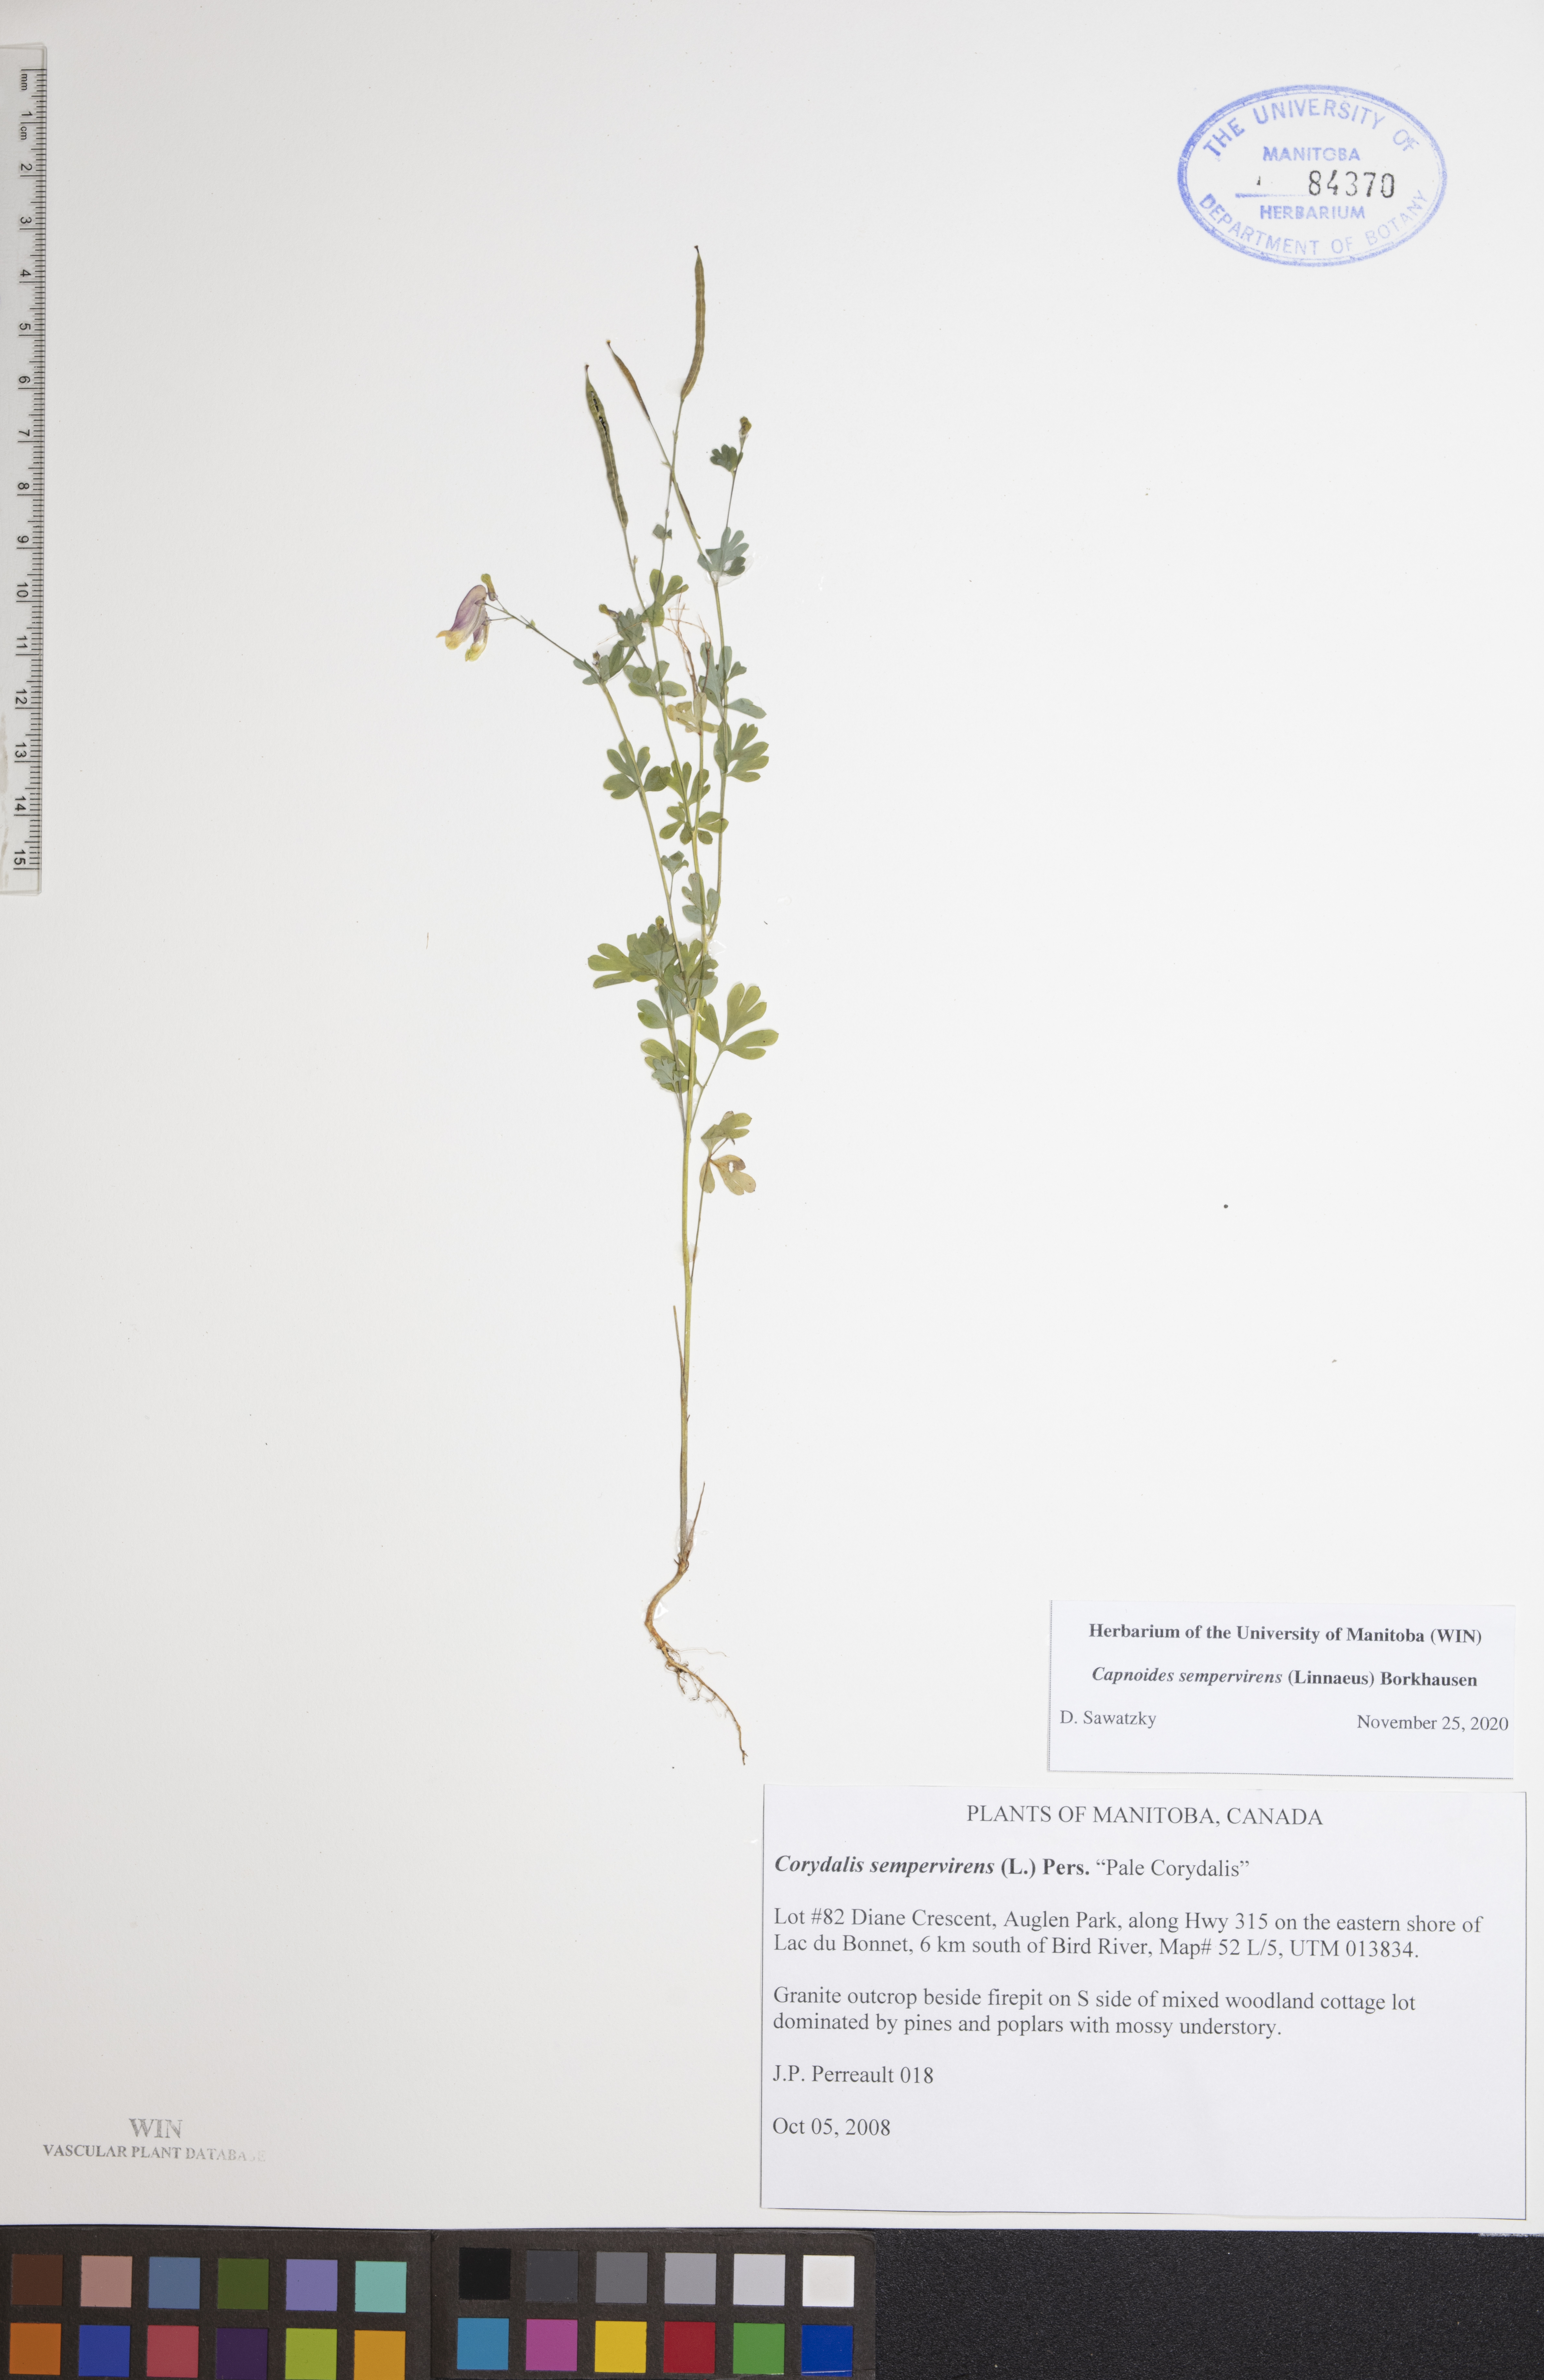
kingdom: Plantae
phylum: Tracheophyta
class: Magnoliopsida
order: Ranunculales
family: Papaveraceae
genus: Capnoides
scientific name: Capnoides sempervirens
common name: Rock harlequin
